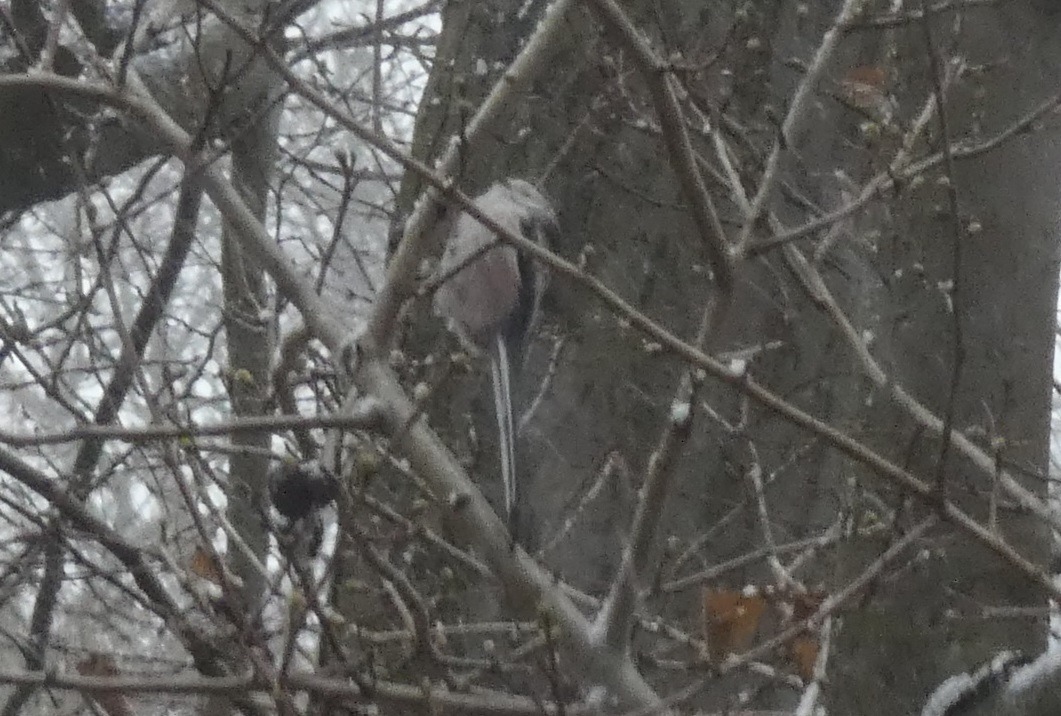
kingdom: Animalia
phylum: Chordata
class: Aves
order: Passeriformes
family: Aegithalidae
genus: Aegithalos
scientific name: Aegithalos caudatus
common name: Halemejse
